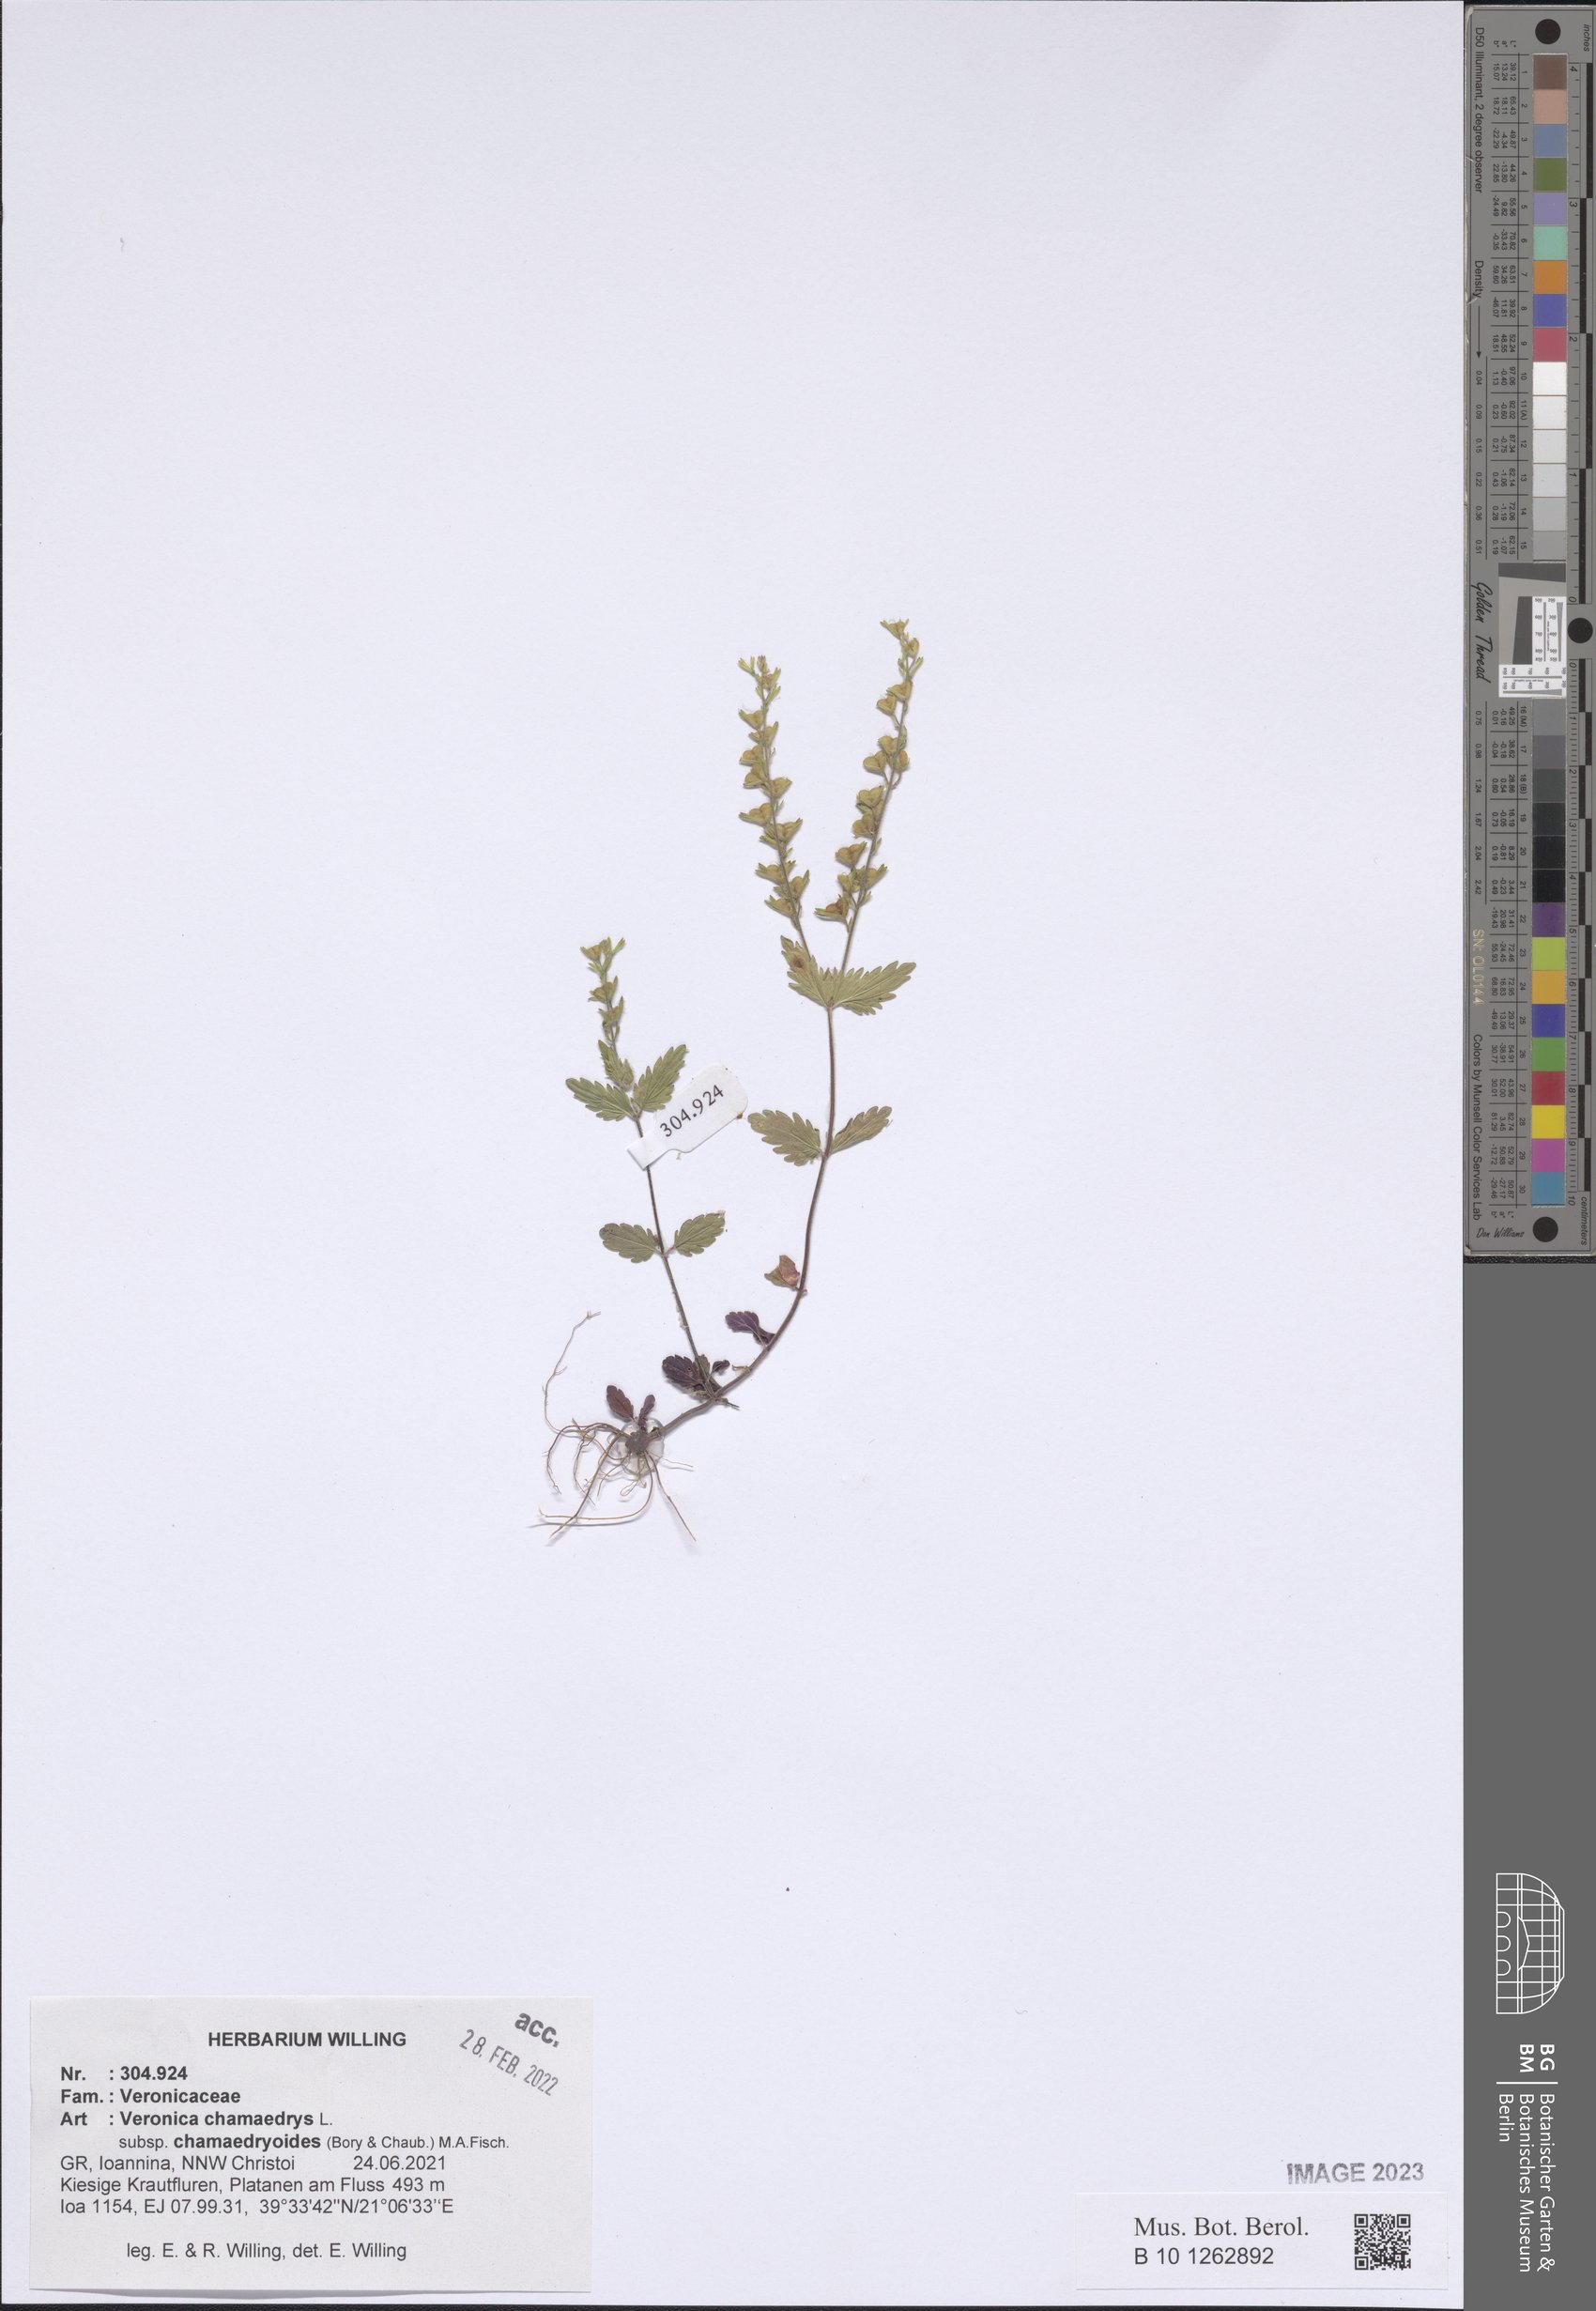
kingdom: Plantae
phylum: Tracheophyta
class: Magnoliopsida
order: Lamiales
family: Plantaginaceae
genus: Veronica
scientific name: Veronica chamaedrys
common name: Germander speedwell
